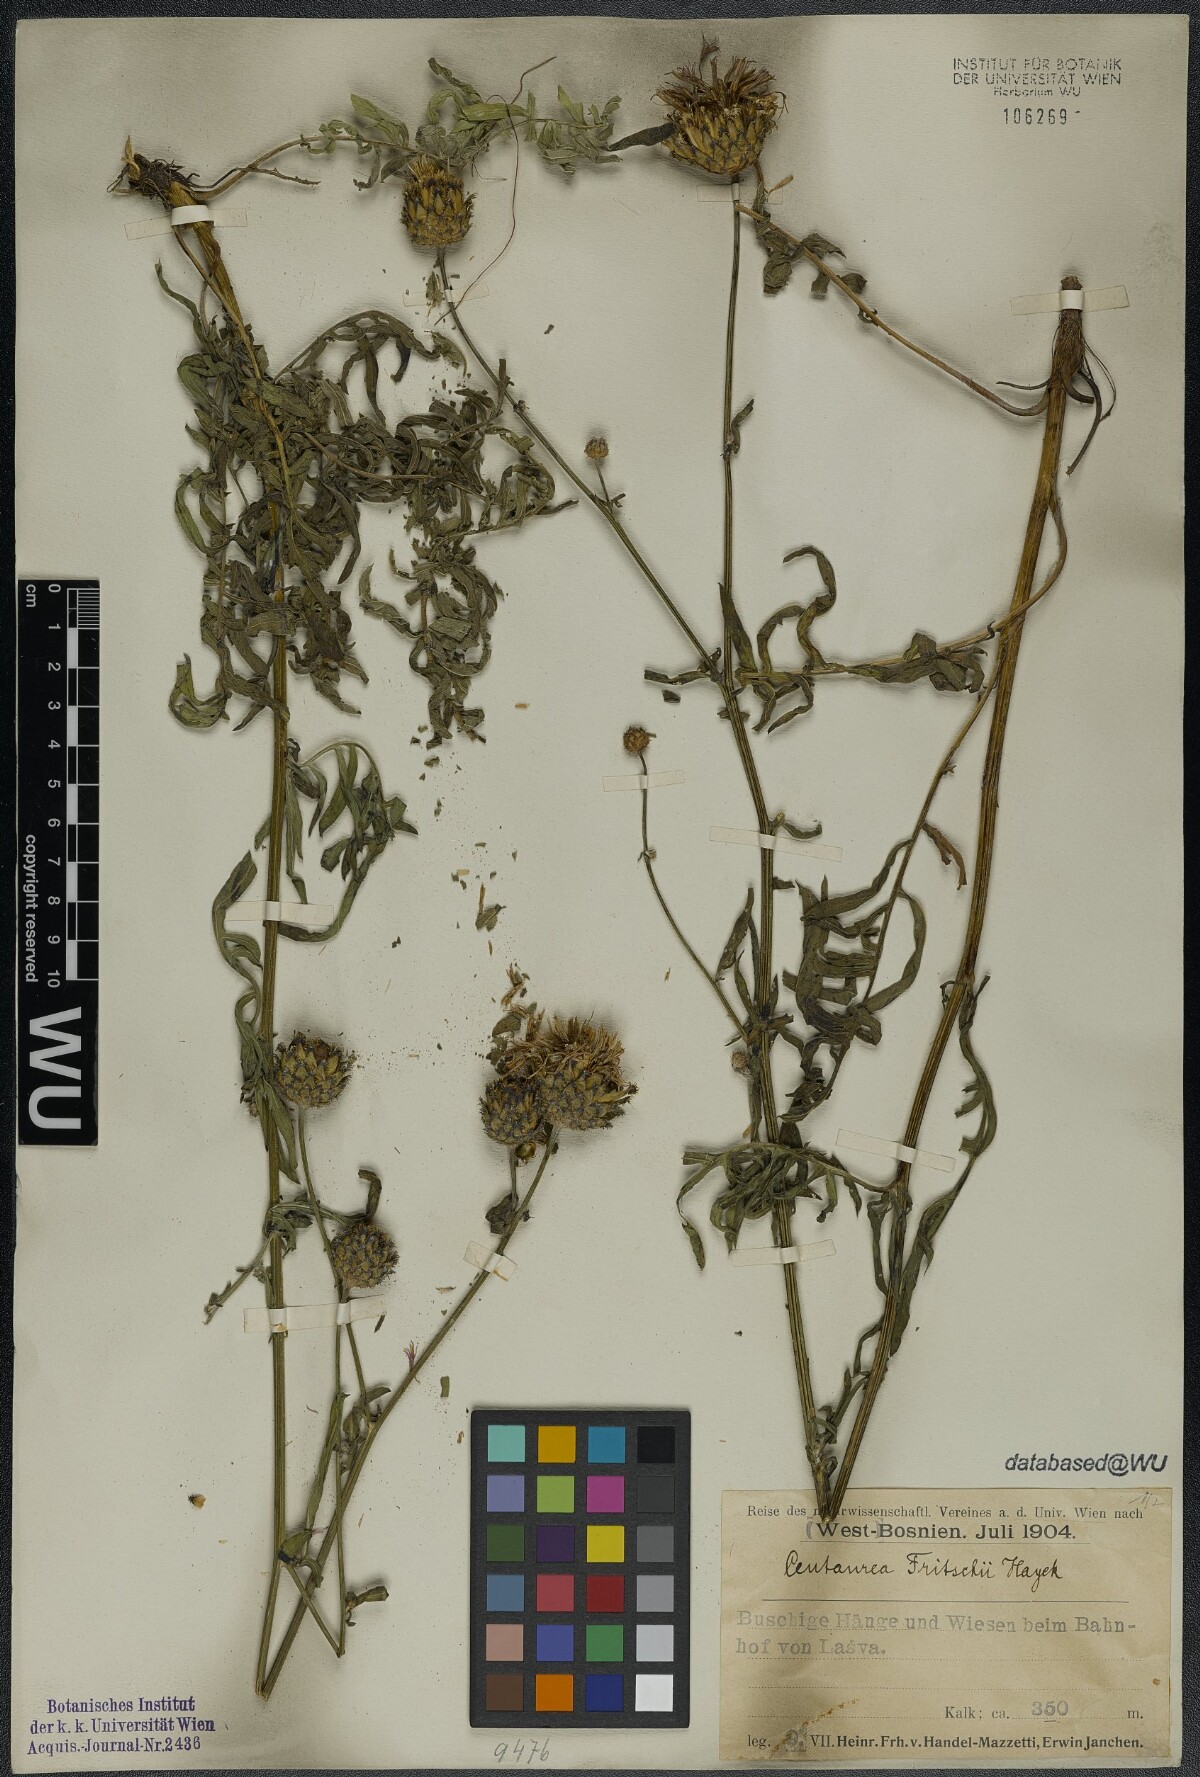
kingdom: Plantae
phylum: Tracheophyta
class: Magnoliopsida
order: Asterales
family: Asteraceae
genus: Centaurea
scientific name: Centaurea scabiosa
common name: Greater knapweed
